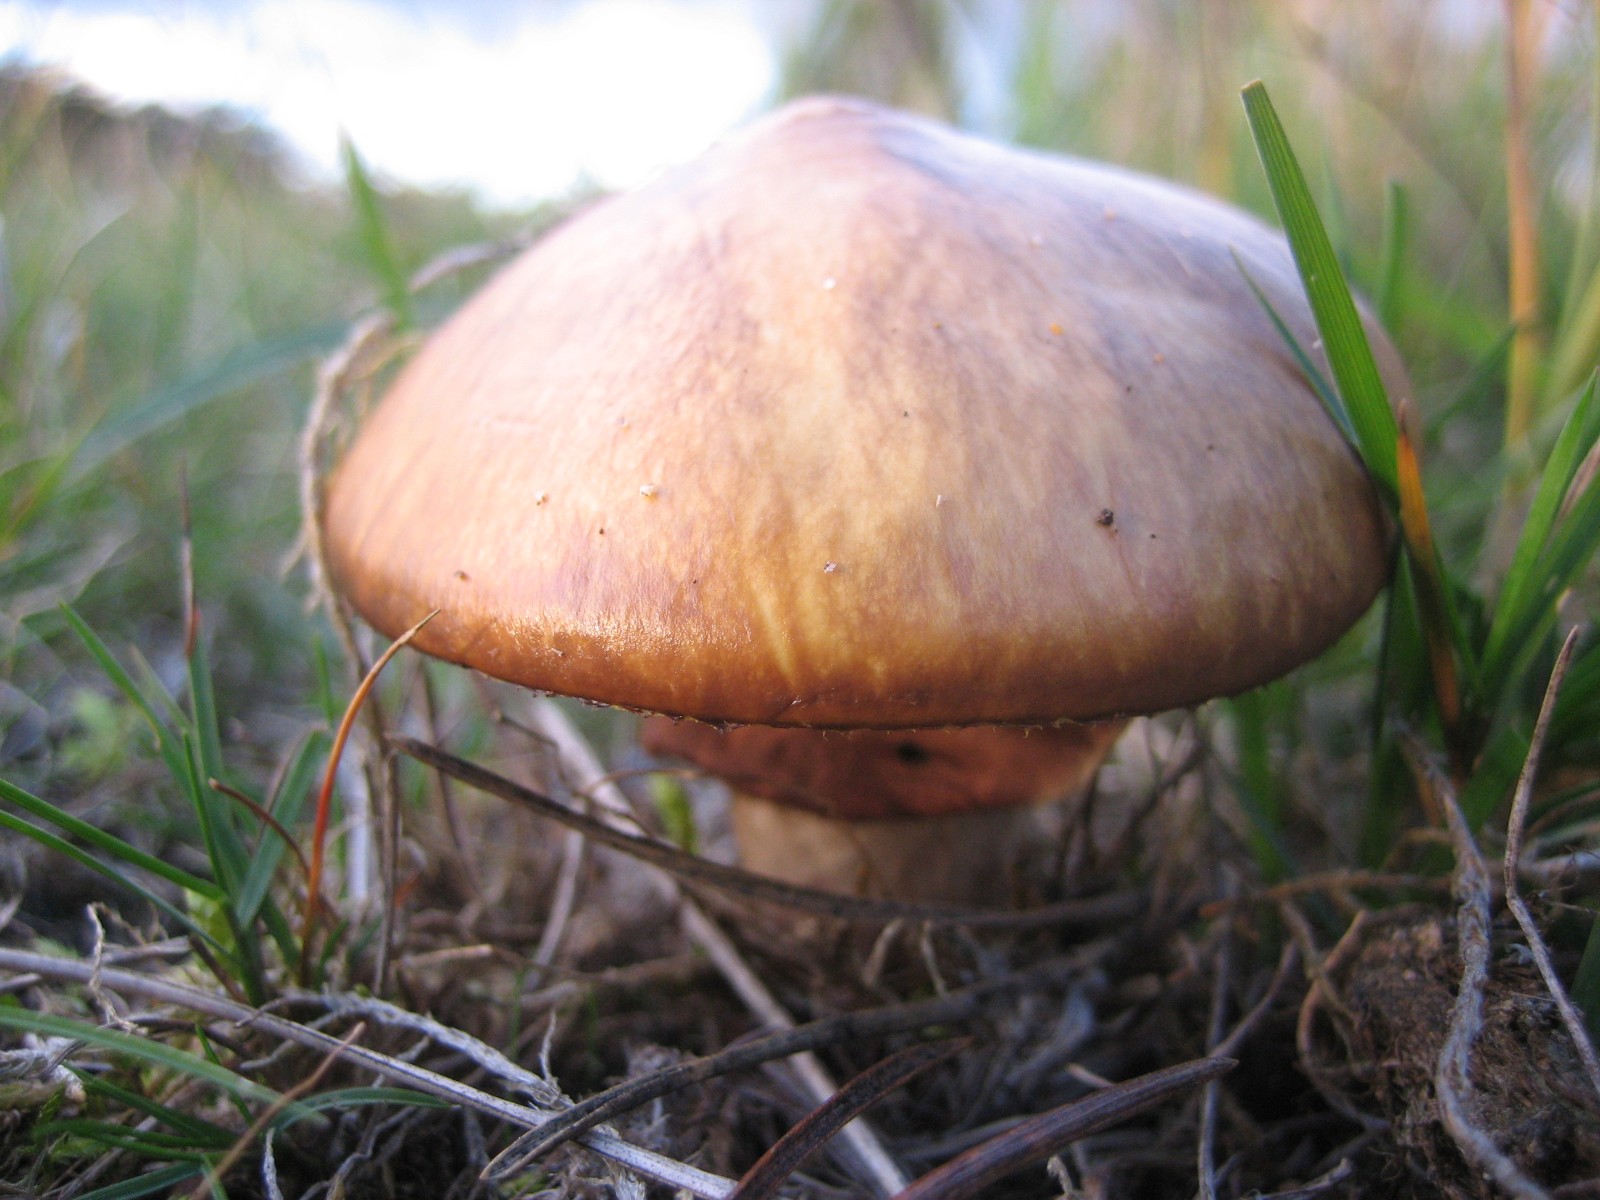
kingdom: Fungi
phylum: Basidiomycota
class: Agaricomycetes
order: Boletales
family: Suillaceae
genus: Suillus
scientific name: Suillus luteus
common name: brungul slimrørhat
